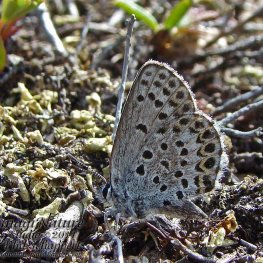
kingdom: Animalia
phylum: Arthropoda
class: Insecta
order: Lepidoptera
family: Lycaenidae
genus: Lycaeides
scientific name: Lycaeides idas
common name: Northern Blue
